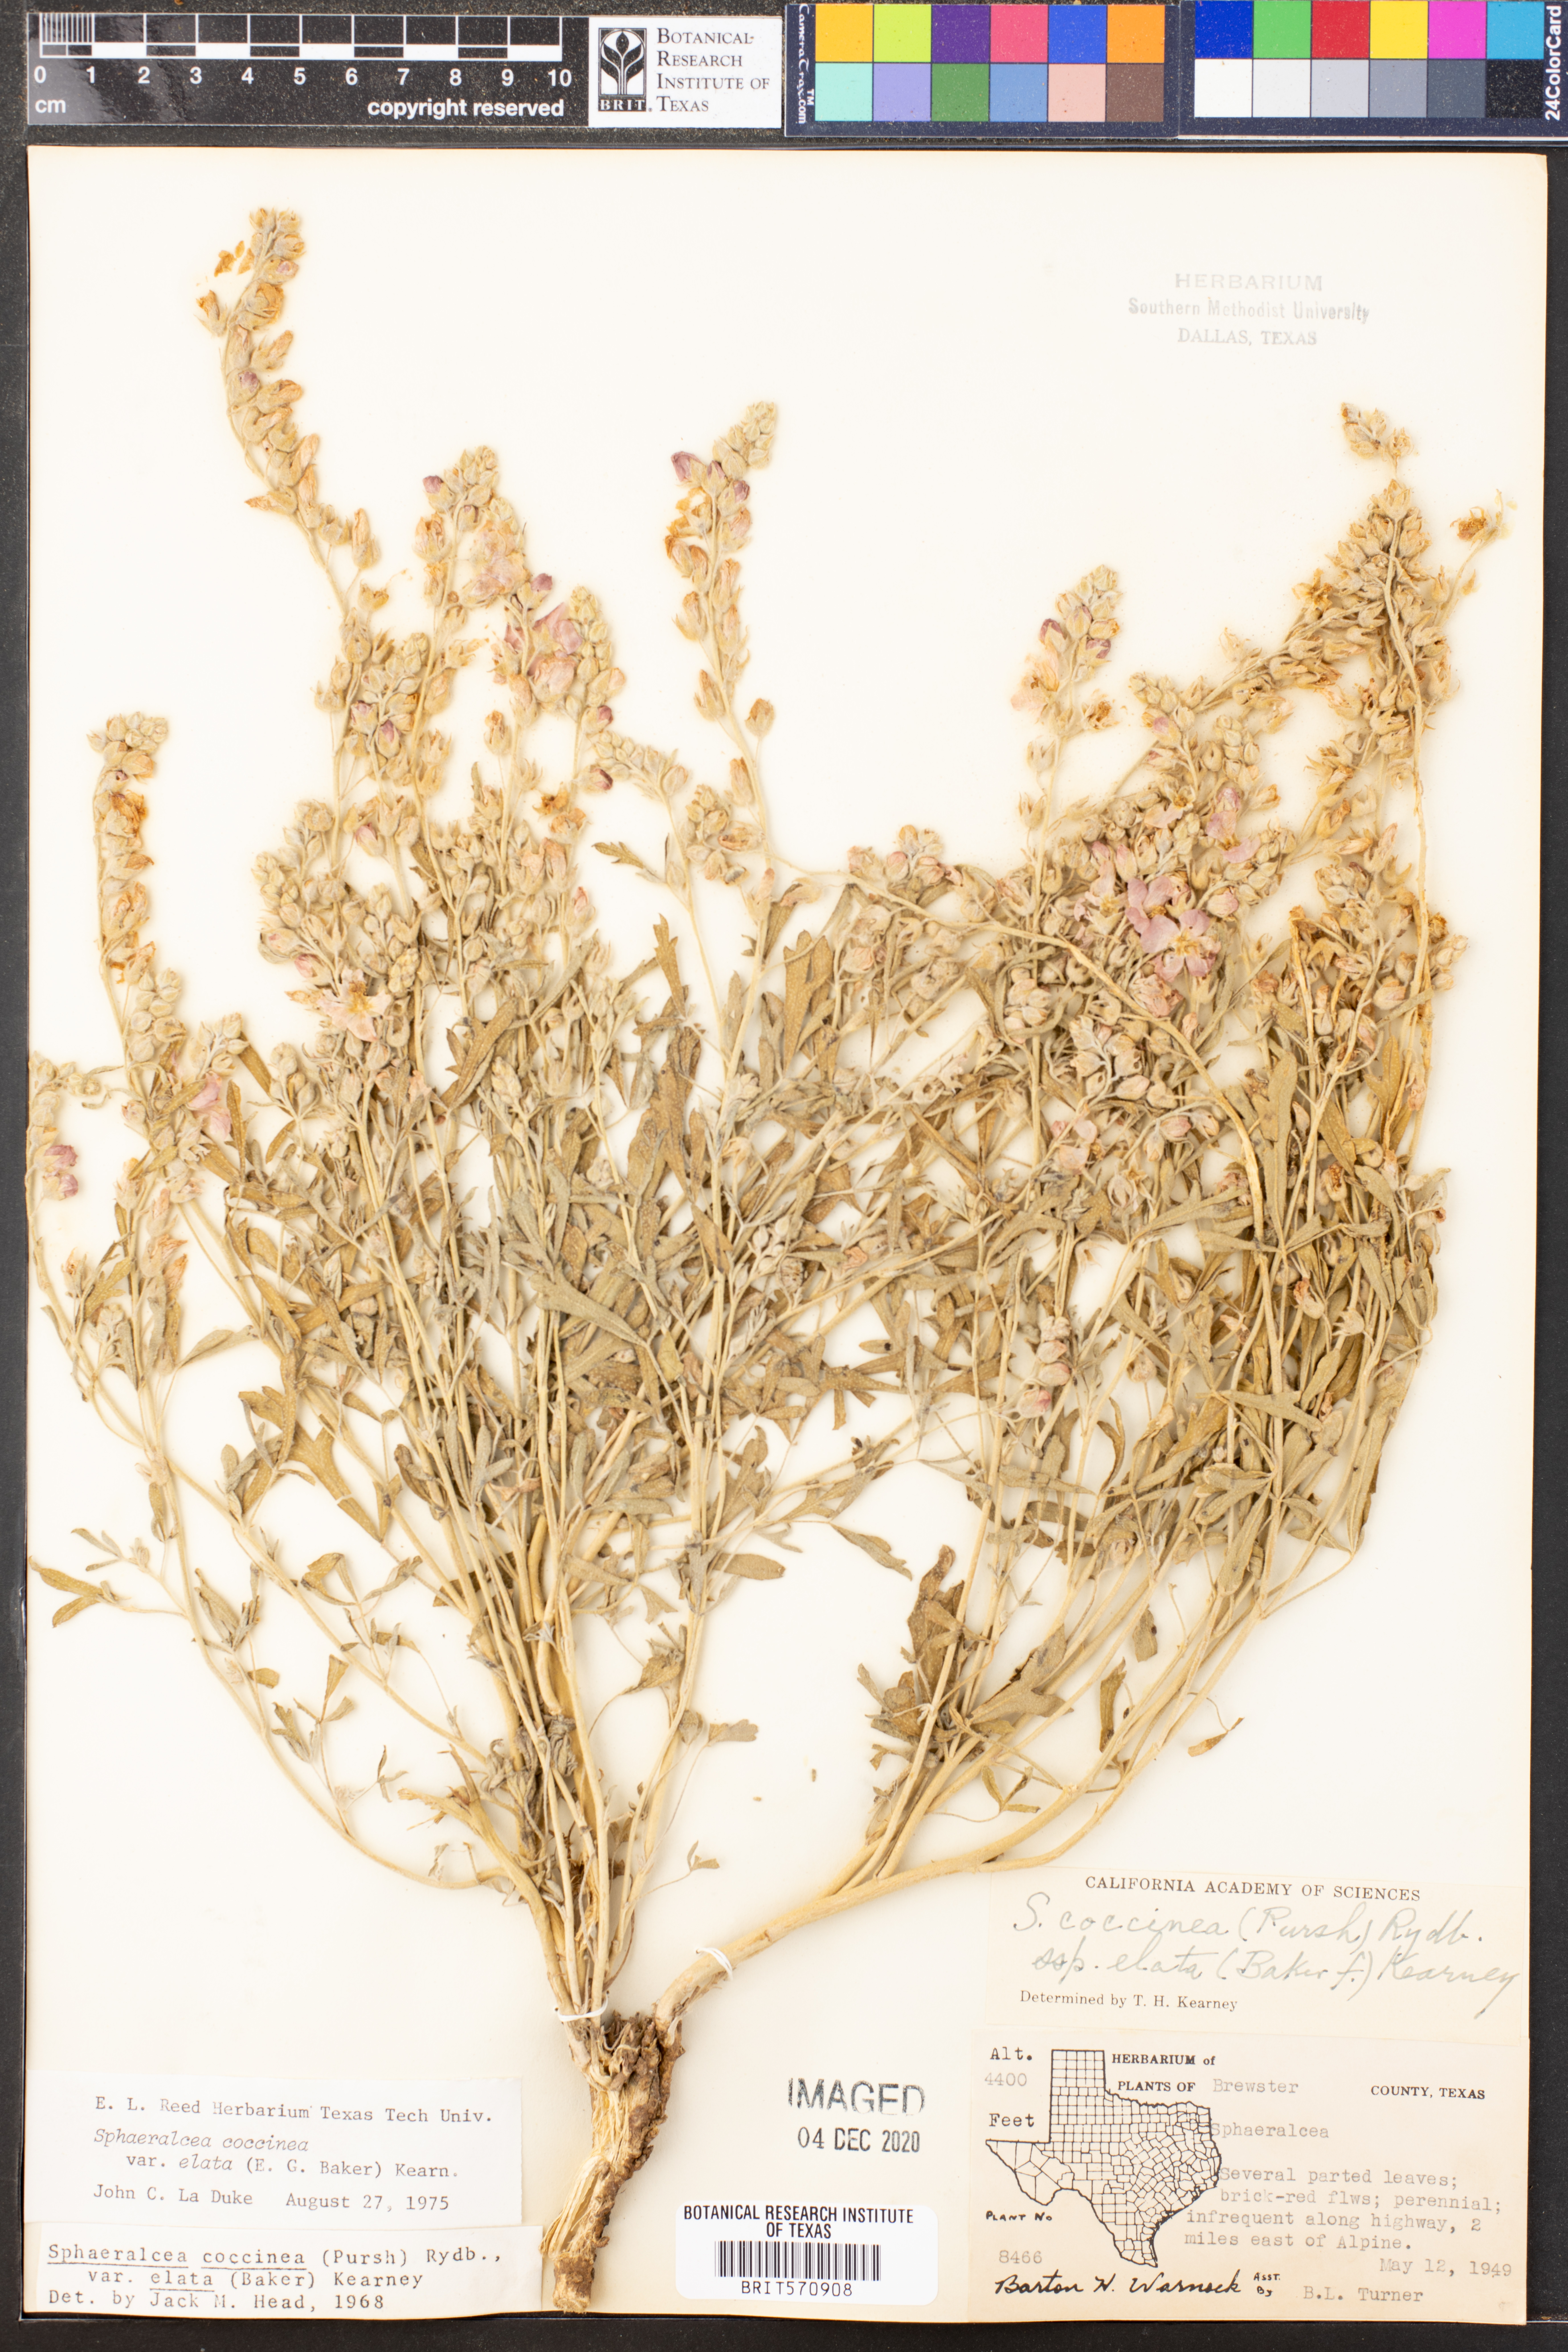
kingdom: Plantae
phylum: Tracheophyta
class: Magnoliopsida
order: Malvales
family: Malvaceae
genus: Sphaeralcea
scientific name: Sphaeralcea coccinea
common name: Moss-rose
